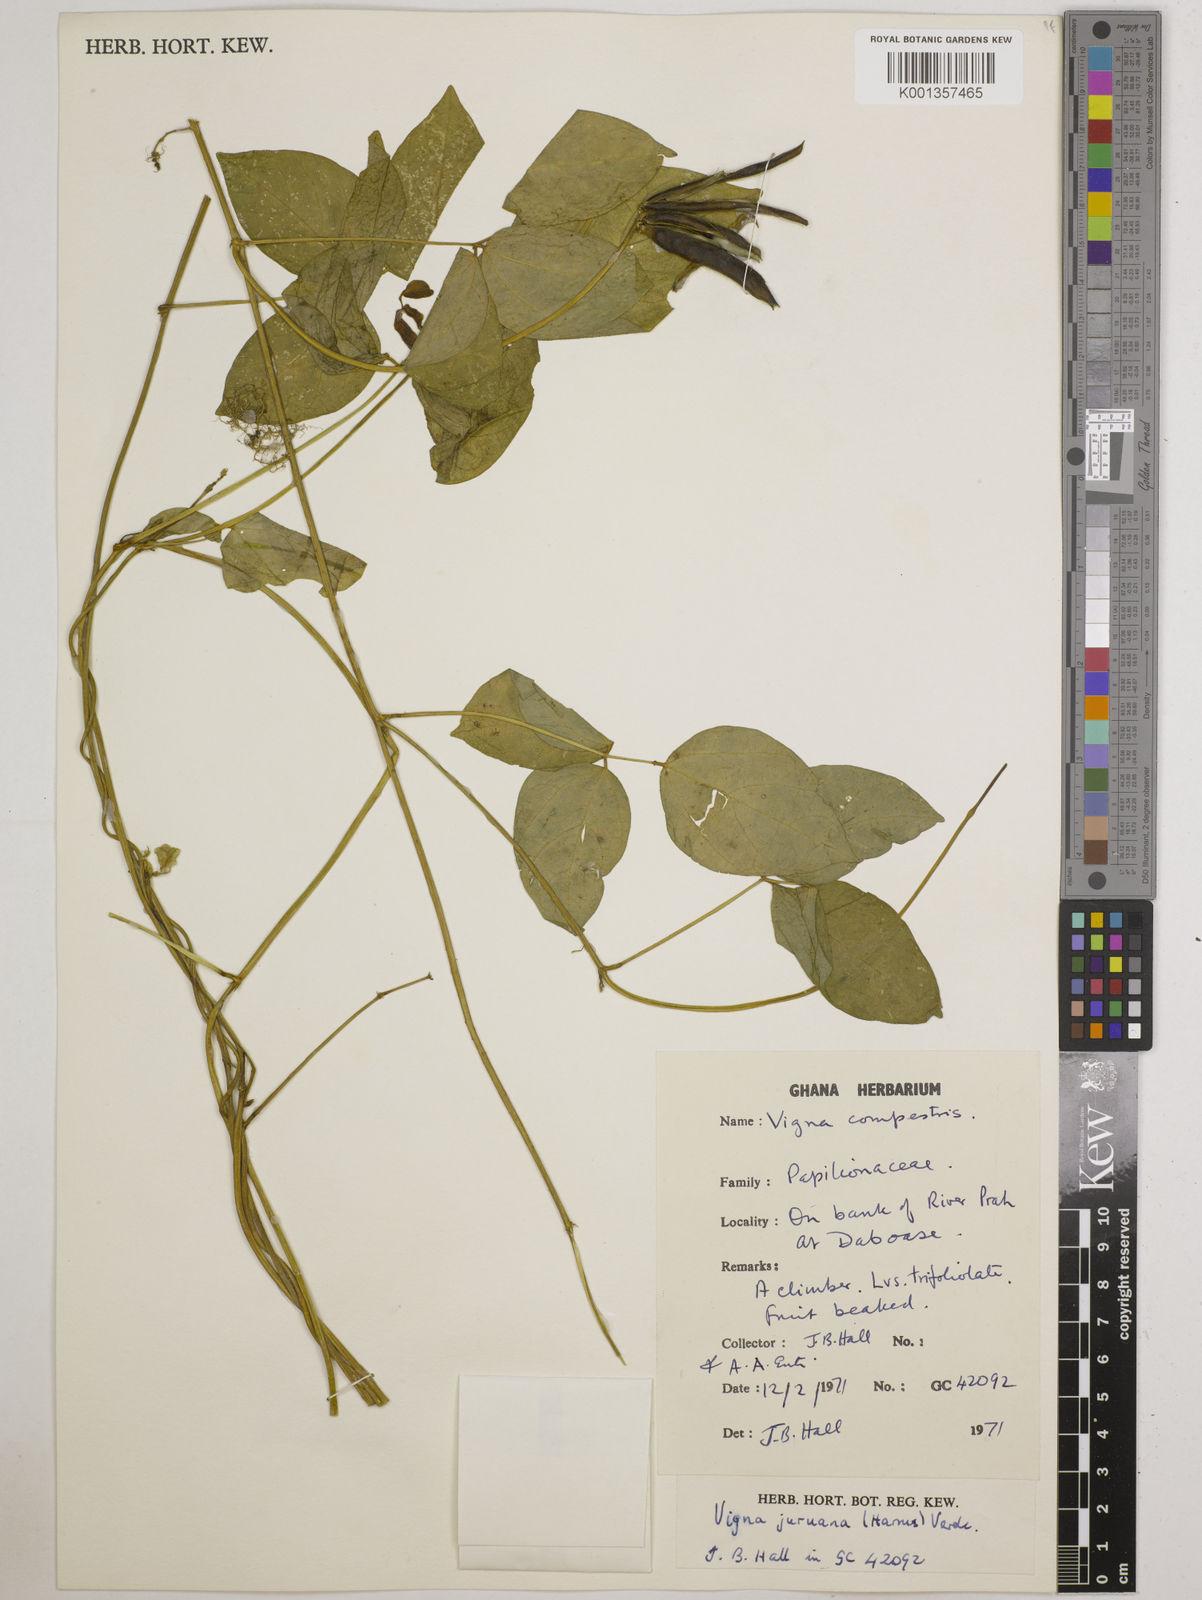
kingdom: Plantae
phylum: Tracheophyta
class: Magnoliopsida
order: Fabales
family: Fabaceae
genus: Vigna
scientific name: Vigna juruana
